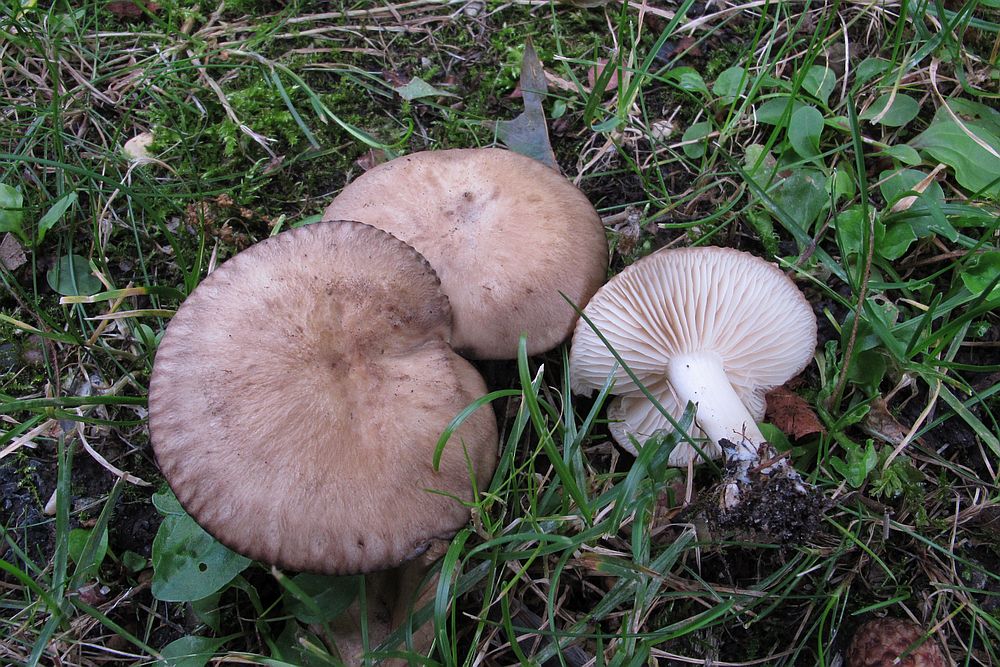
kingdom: Fungi
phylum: Basidiomycota
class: Agaricomycetes
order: Agaricales
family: Lyophyllaceae
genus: Lyophyllum
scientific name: Lyophyllum paelochroum
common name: blånende gråblad
